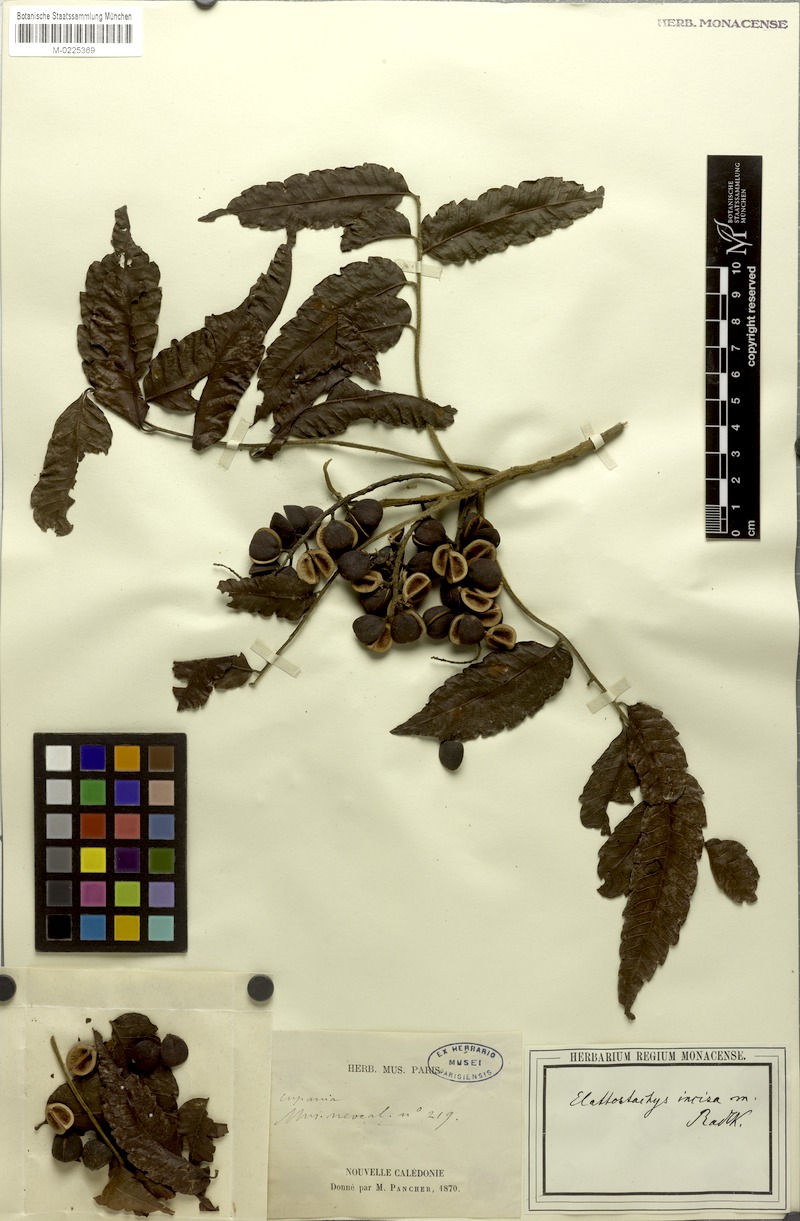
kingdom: Plantae
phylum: Tracheophyta
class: Magnoliopsida
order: Sapindales
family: Sapindaceae
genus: Elattostachys
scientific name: Elattostachys incisa
